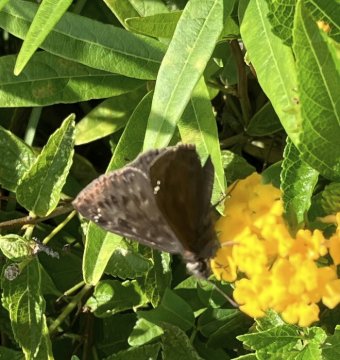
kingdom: Animalia
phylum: Arthropoda
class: Insecta
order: Lepidoptera
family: Hesperiidae
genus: Erynnis
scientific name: Erynnis zarucco
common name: Zarucco Duskywing
